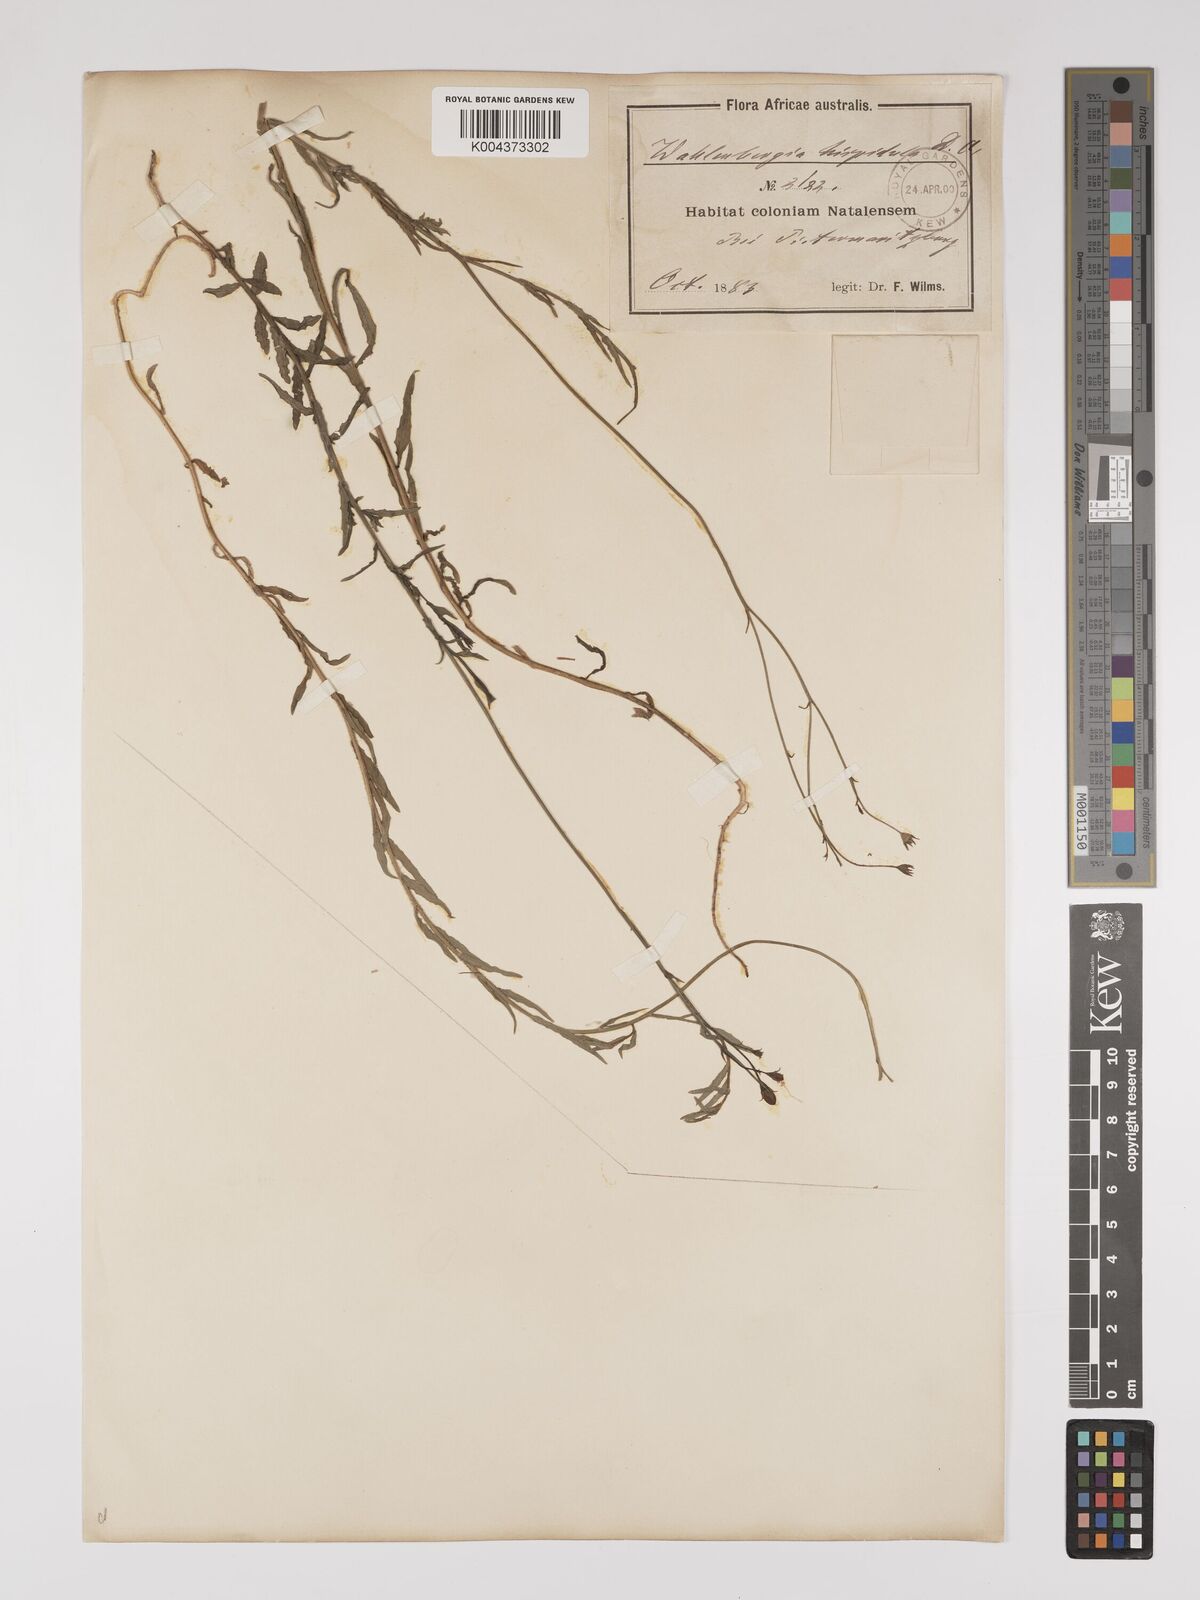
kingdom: Plantae
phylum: Tracheophyta
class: Magnoliopsida
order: Asterales
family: Campanulaceae
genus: Wahlenbergia
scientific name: Wahlenbergia undulata
